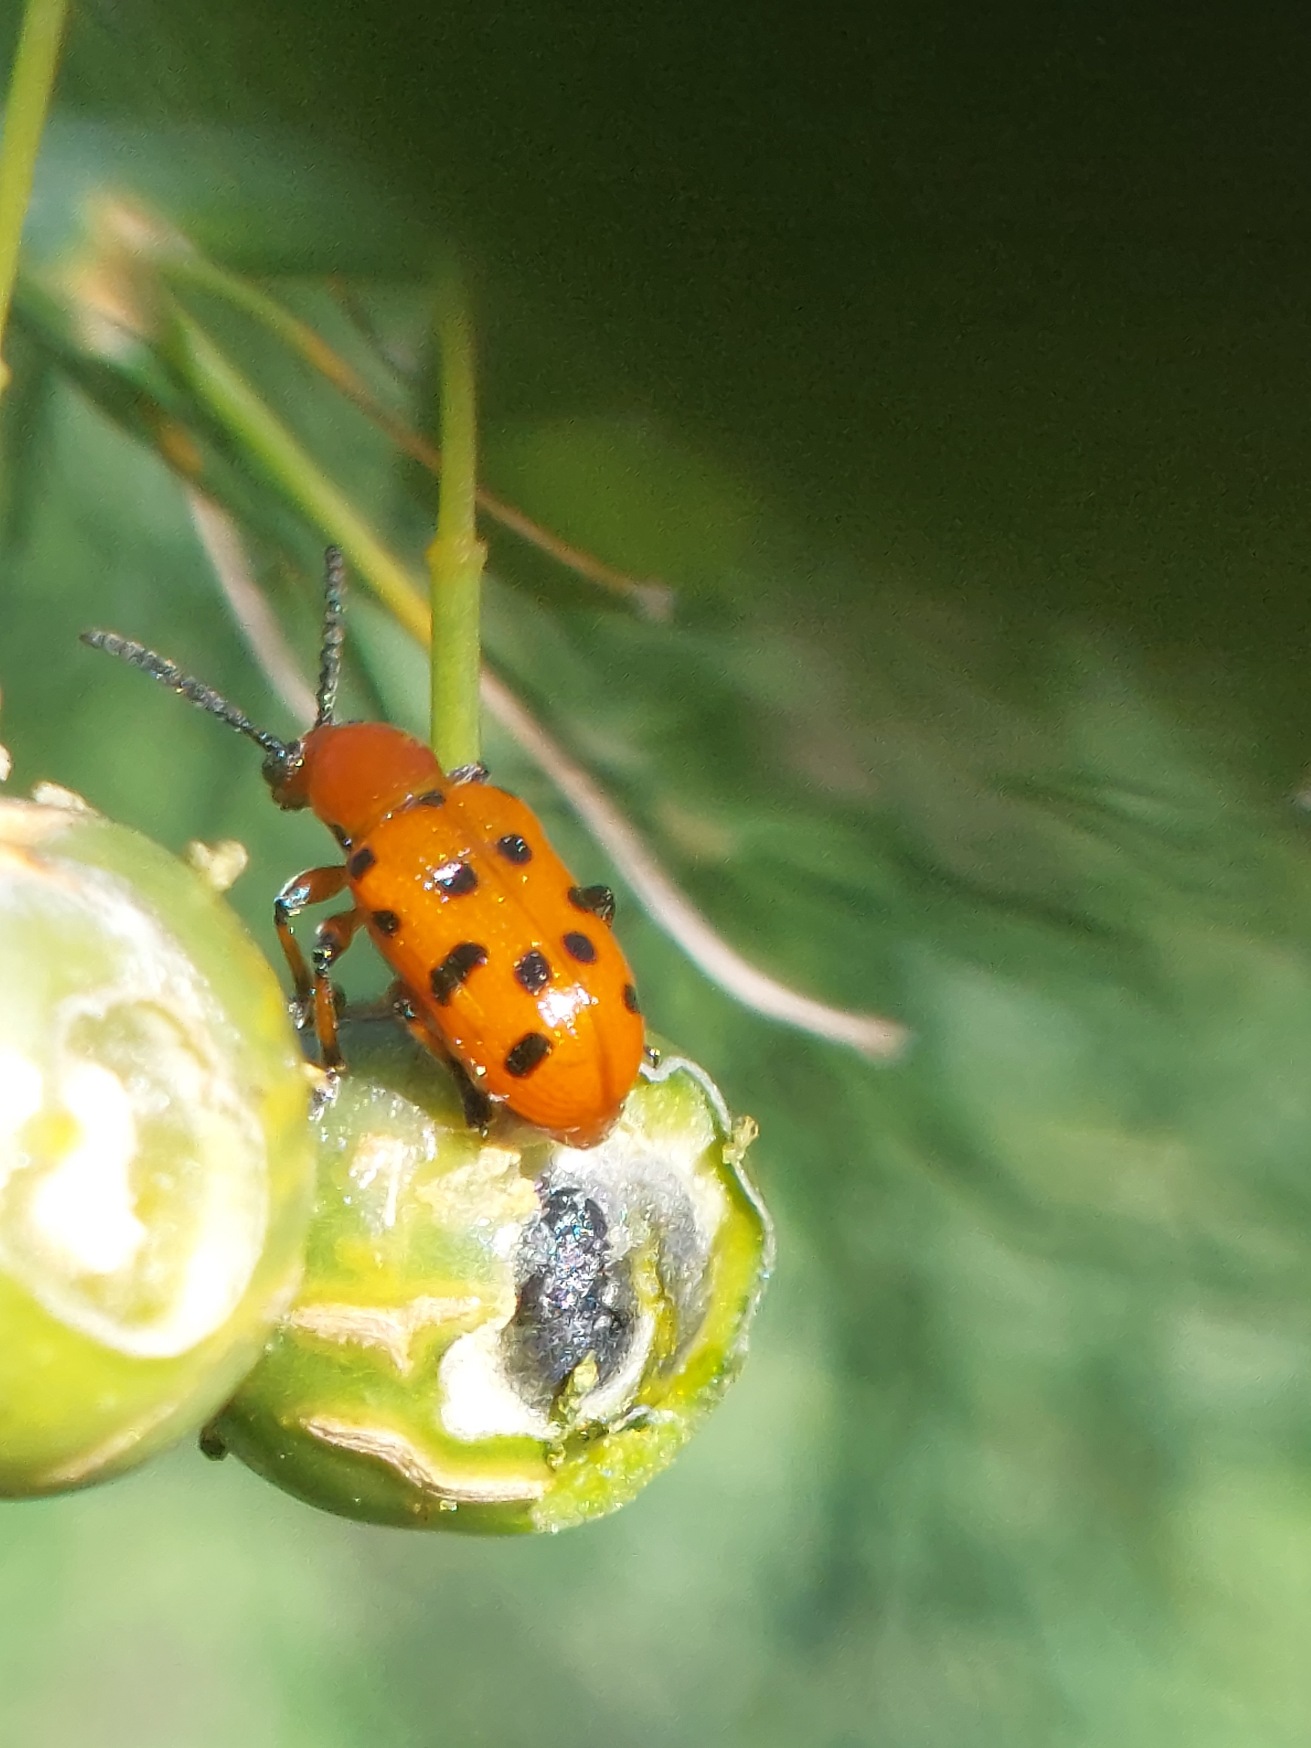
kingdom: Animalia
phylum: Arthropoda
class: Insecta
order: Coleoptera
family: Chrysomelidae
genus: Crioceris
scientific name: Crioceris duodecimpunctata
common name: Tolvplettet aspargesbille
